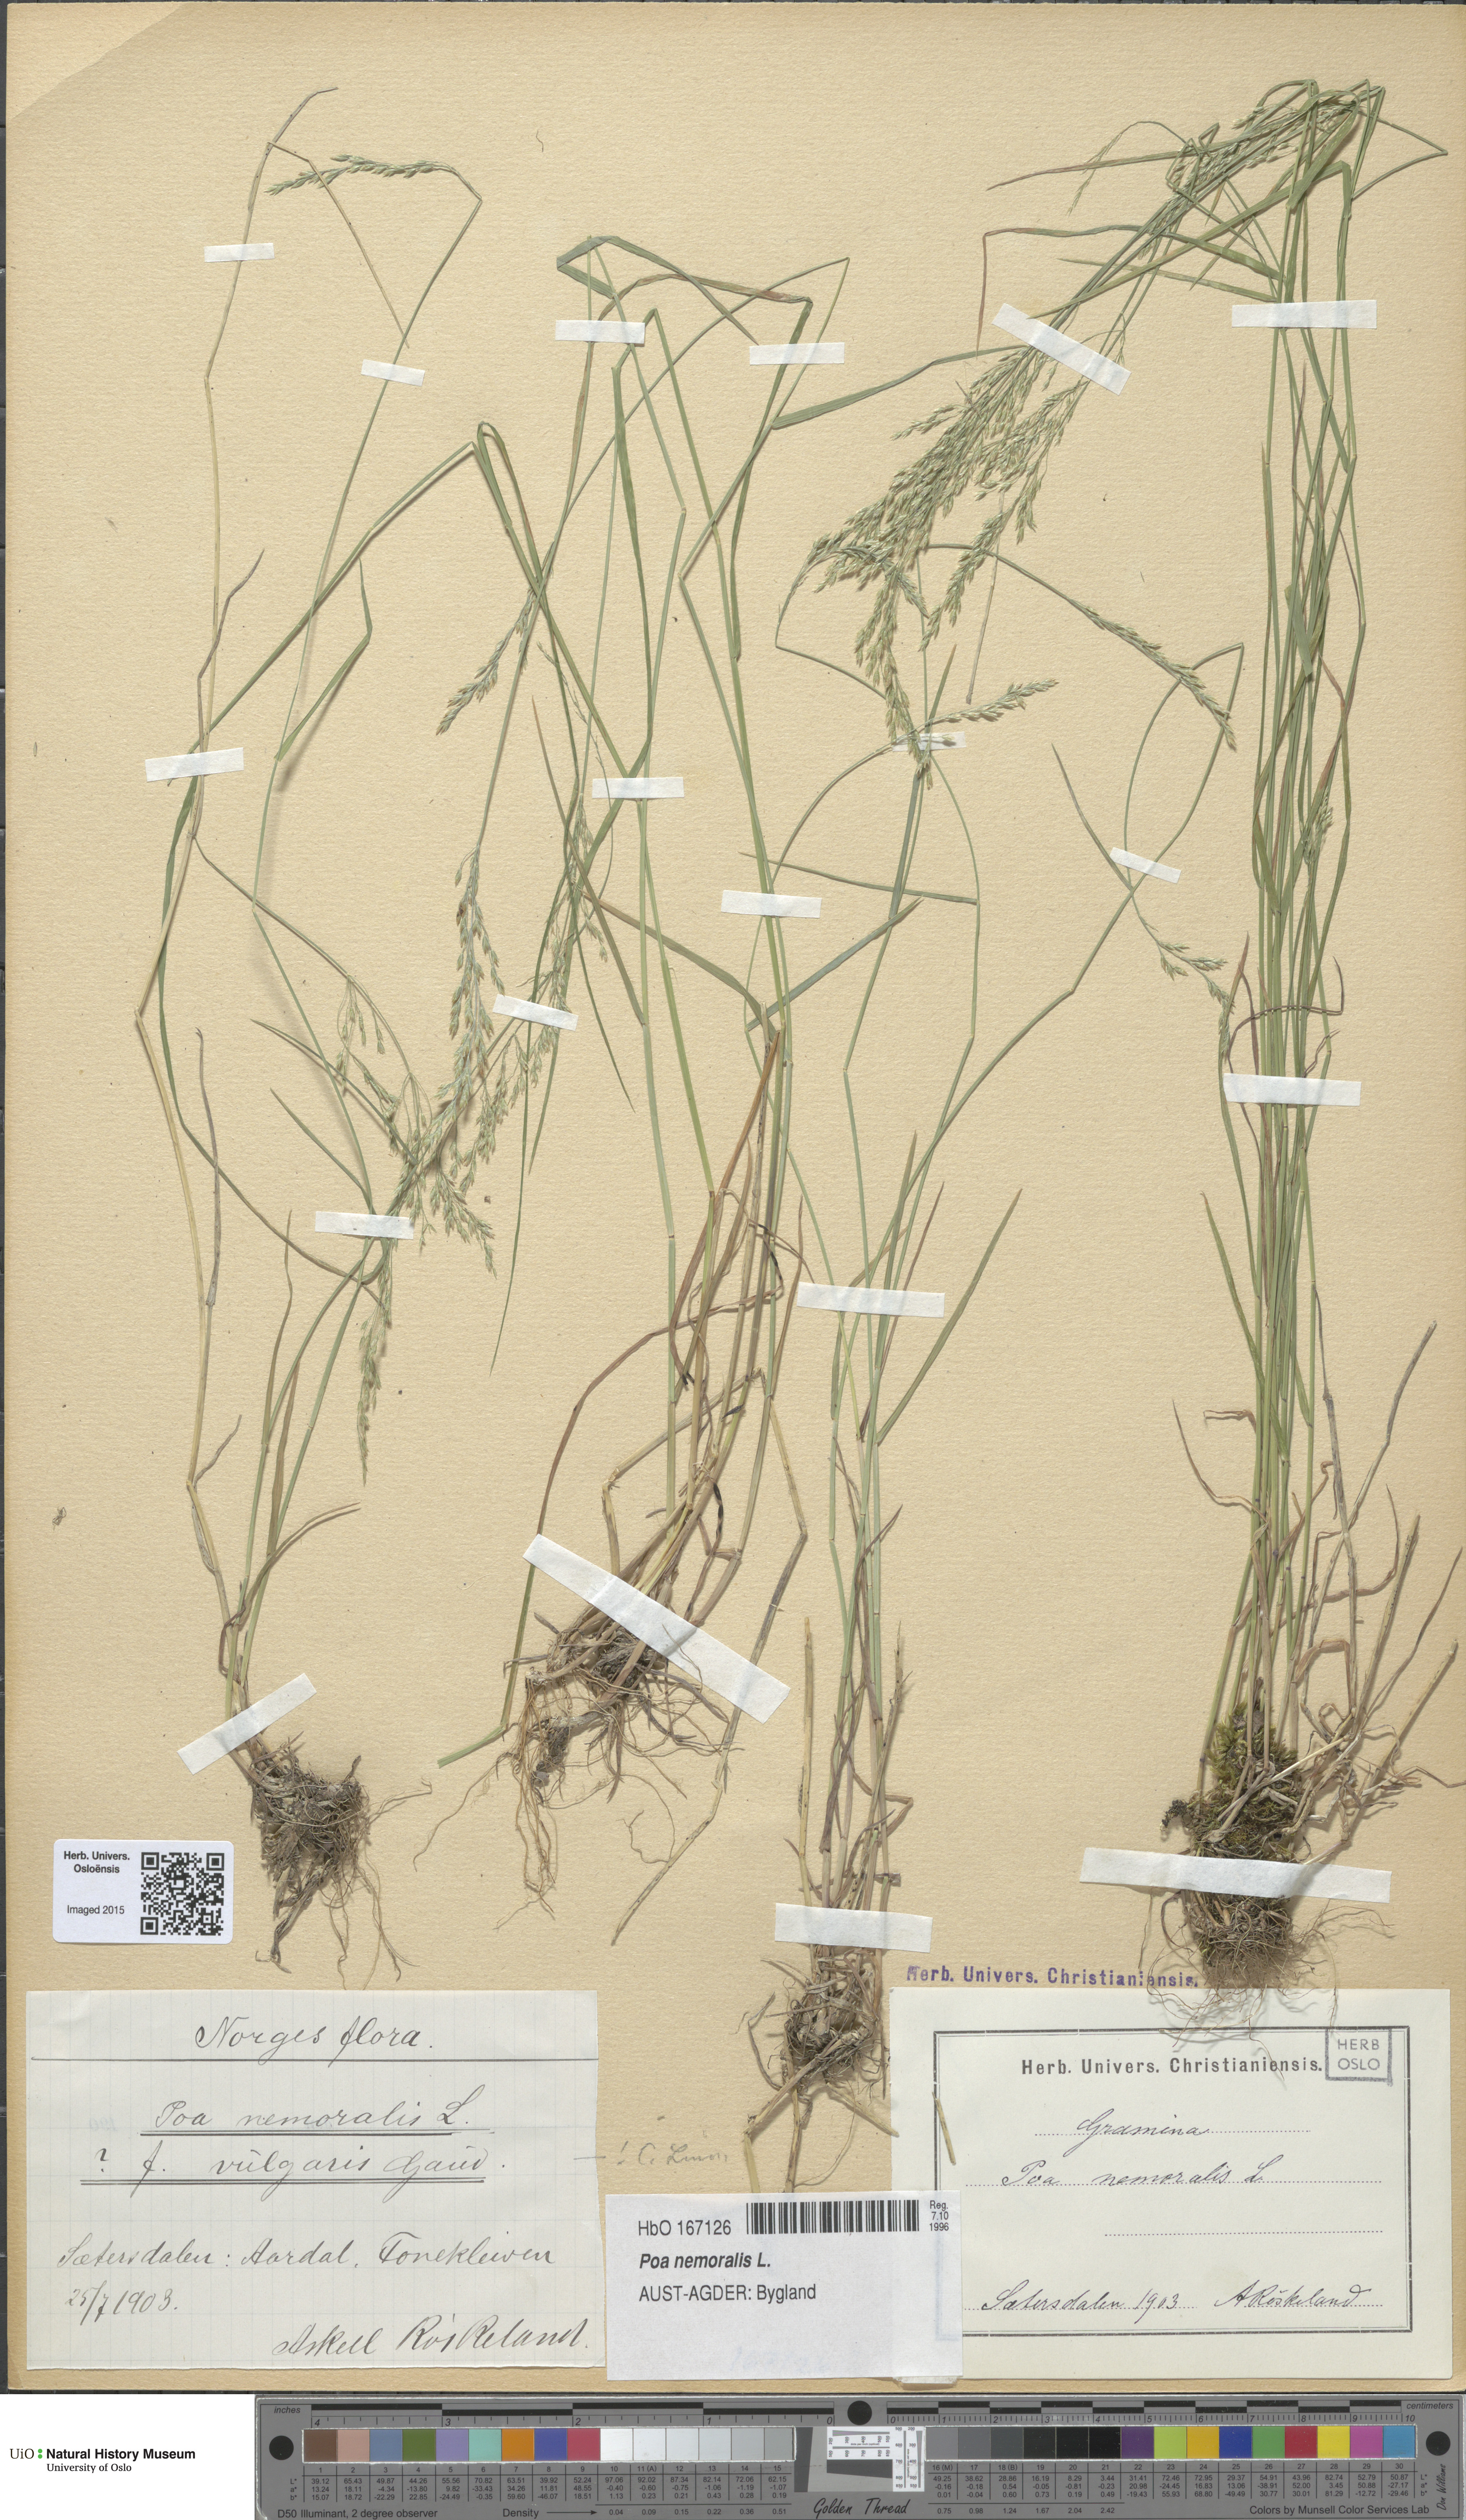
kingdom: Plantae
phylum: Tracheophyta
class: Liliopsida
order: Poales
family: Poaceae
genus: Poa
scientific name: Poa nemoralis
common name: Wood bluegrass
